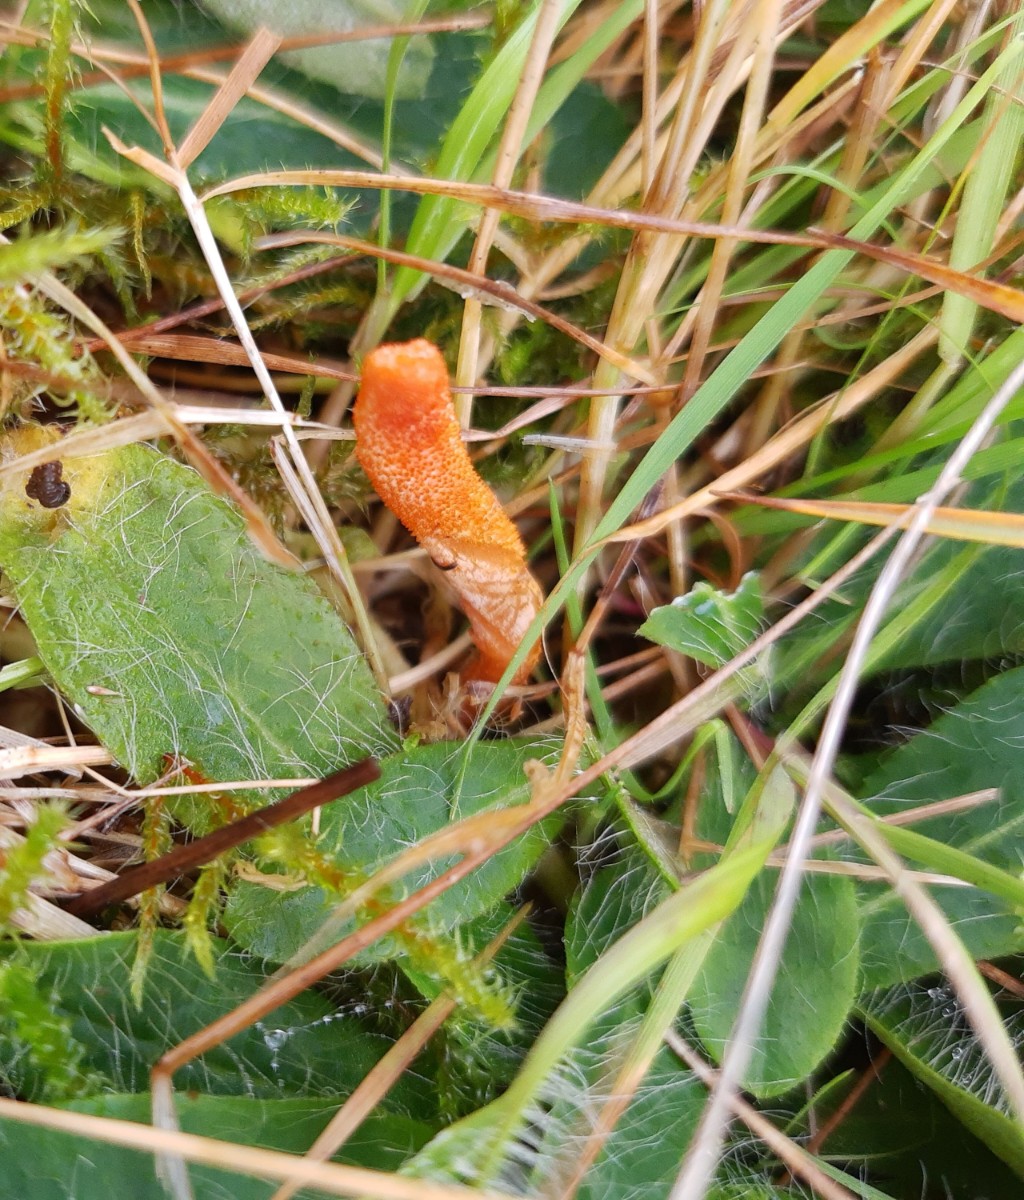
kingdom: Fungi
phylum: Ascomycota
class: Sordariomycetes
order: Hypocreales
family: Cordycipitaceae
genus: Cordyceps
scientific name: Cordyceps militaris
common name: puppe-snyltekølle
